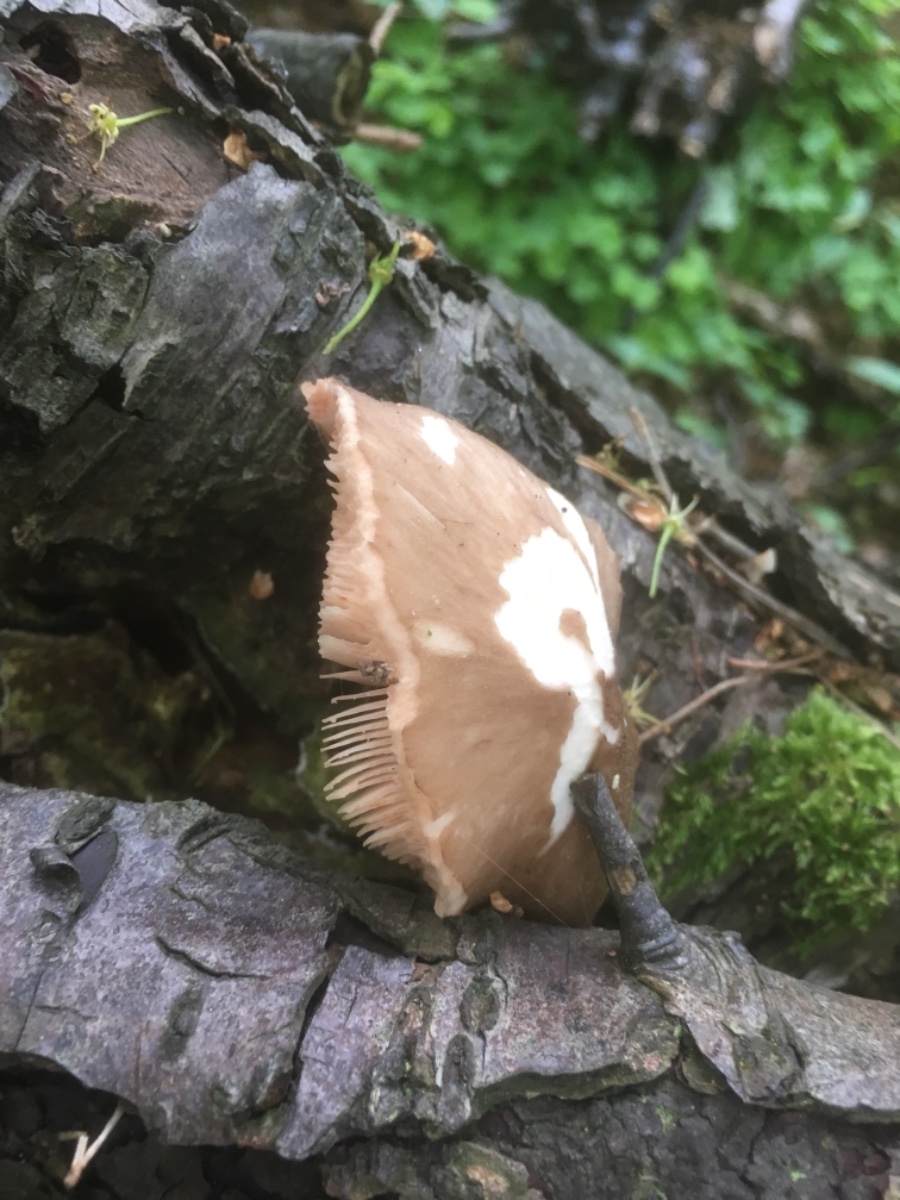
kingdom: Fungi
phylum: Basidiomycota
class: Agaricomycetes
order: Agaricales
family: Pluteaceae
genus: Pluteus
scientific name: Pluteus cervinus
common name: sodfarvet skærmhat
